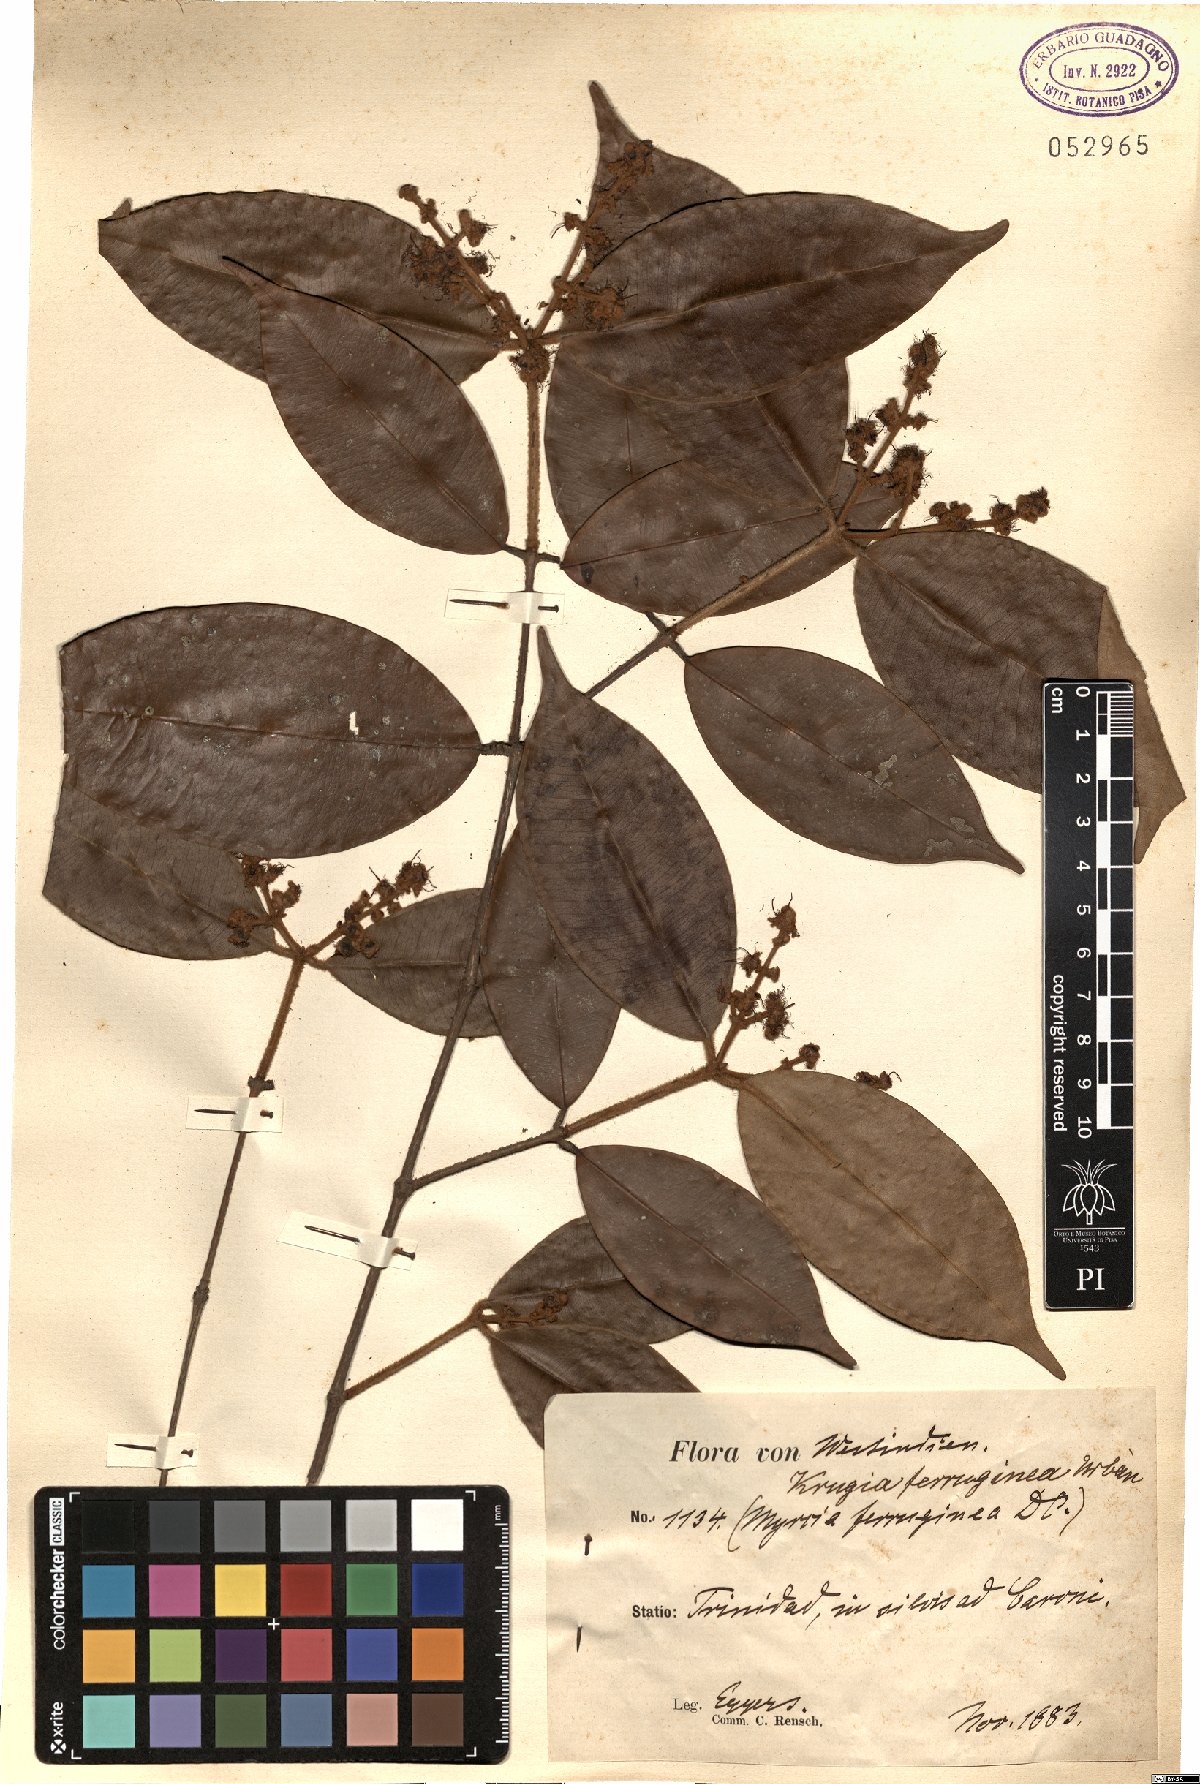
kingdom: Plantae
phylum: Tracheophyta
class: Magnoliopsida
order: Myrtales
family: Myrtaceae
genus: Myrcia
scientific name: Myrcia ferruginea
